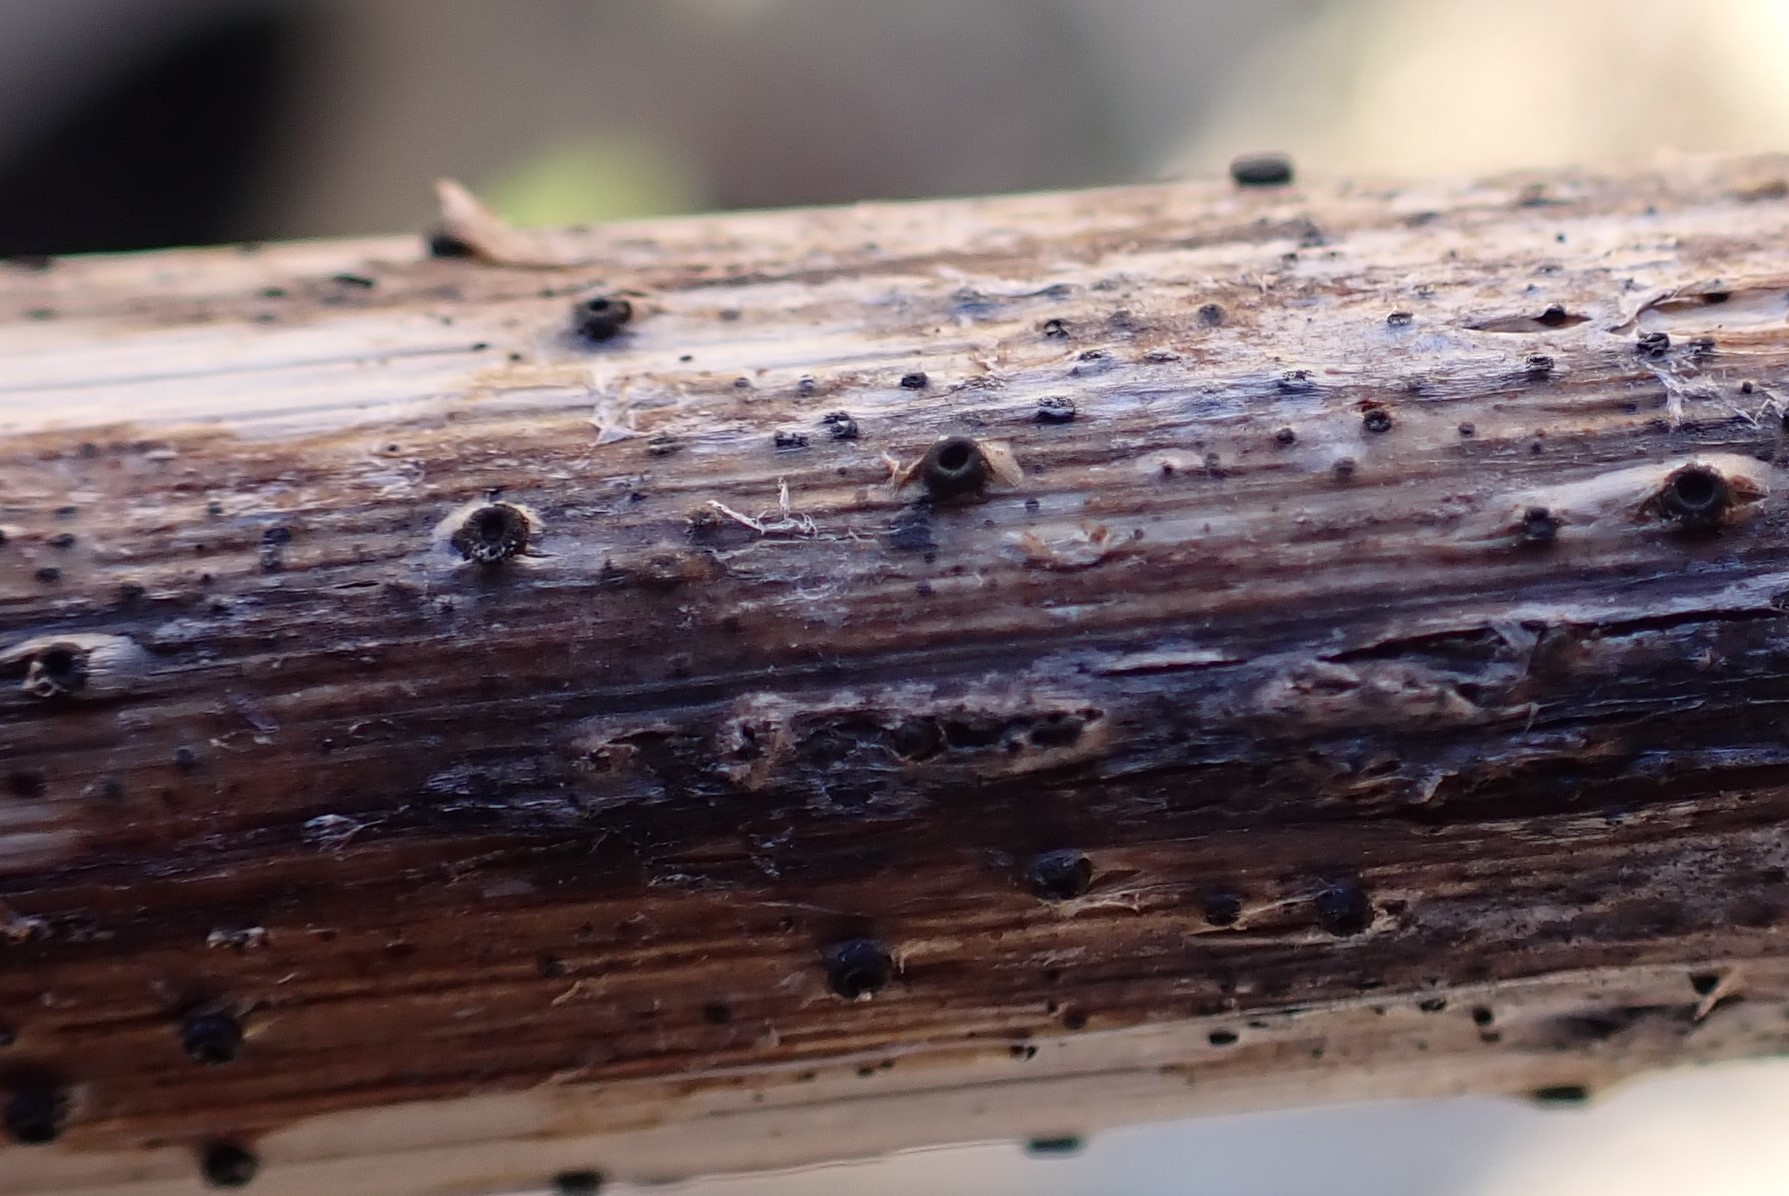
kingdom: Fungi
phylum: Ascomycota
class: Leotiomycetes
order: Helotiales
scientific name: Helotiales
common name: stilkskiveordenen
